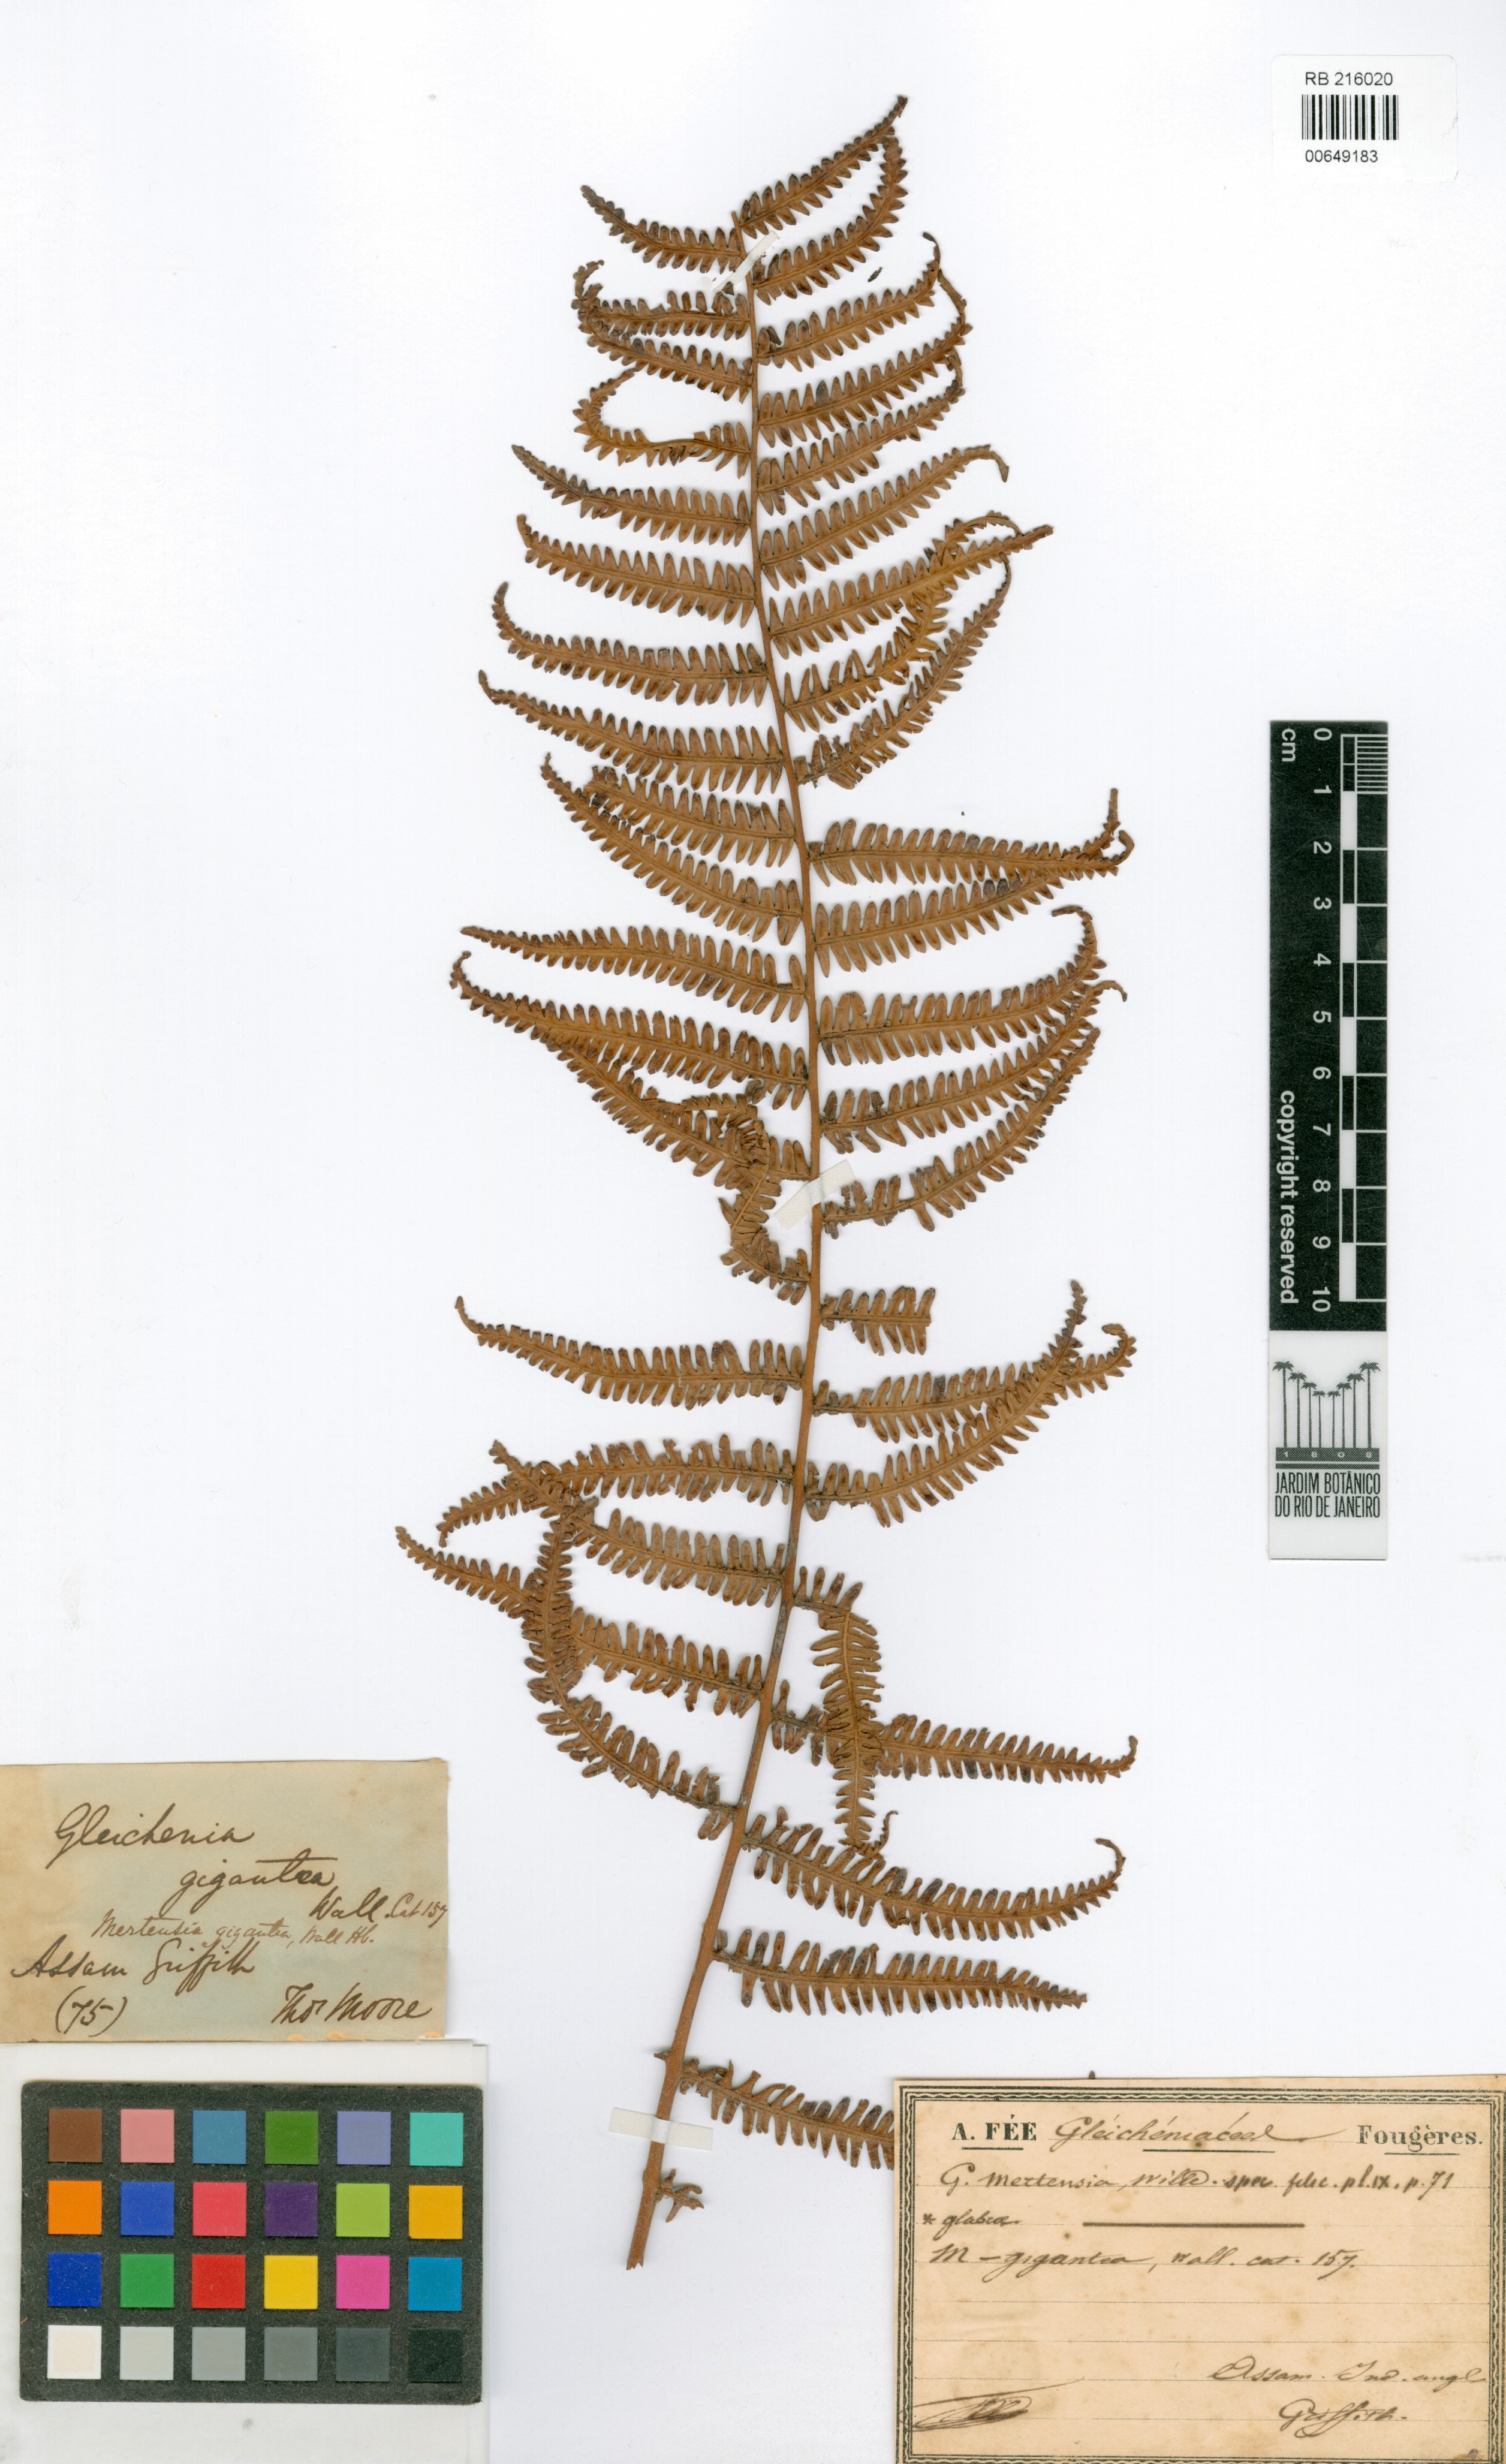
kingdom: Plantae
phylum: Tracheophyta
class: Polypodiopsida
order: Gleicheniales
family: Gleicheniaceae
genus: Diplopterygium
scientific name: Diplopterygium bancroftii
